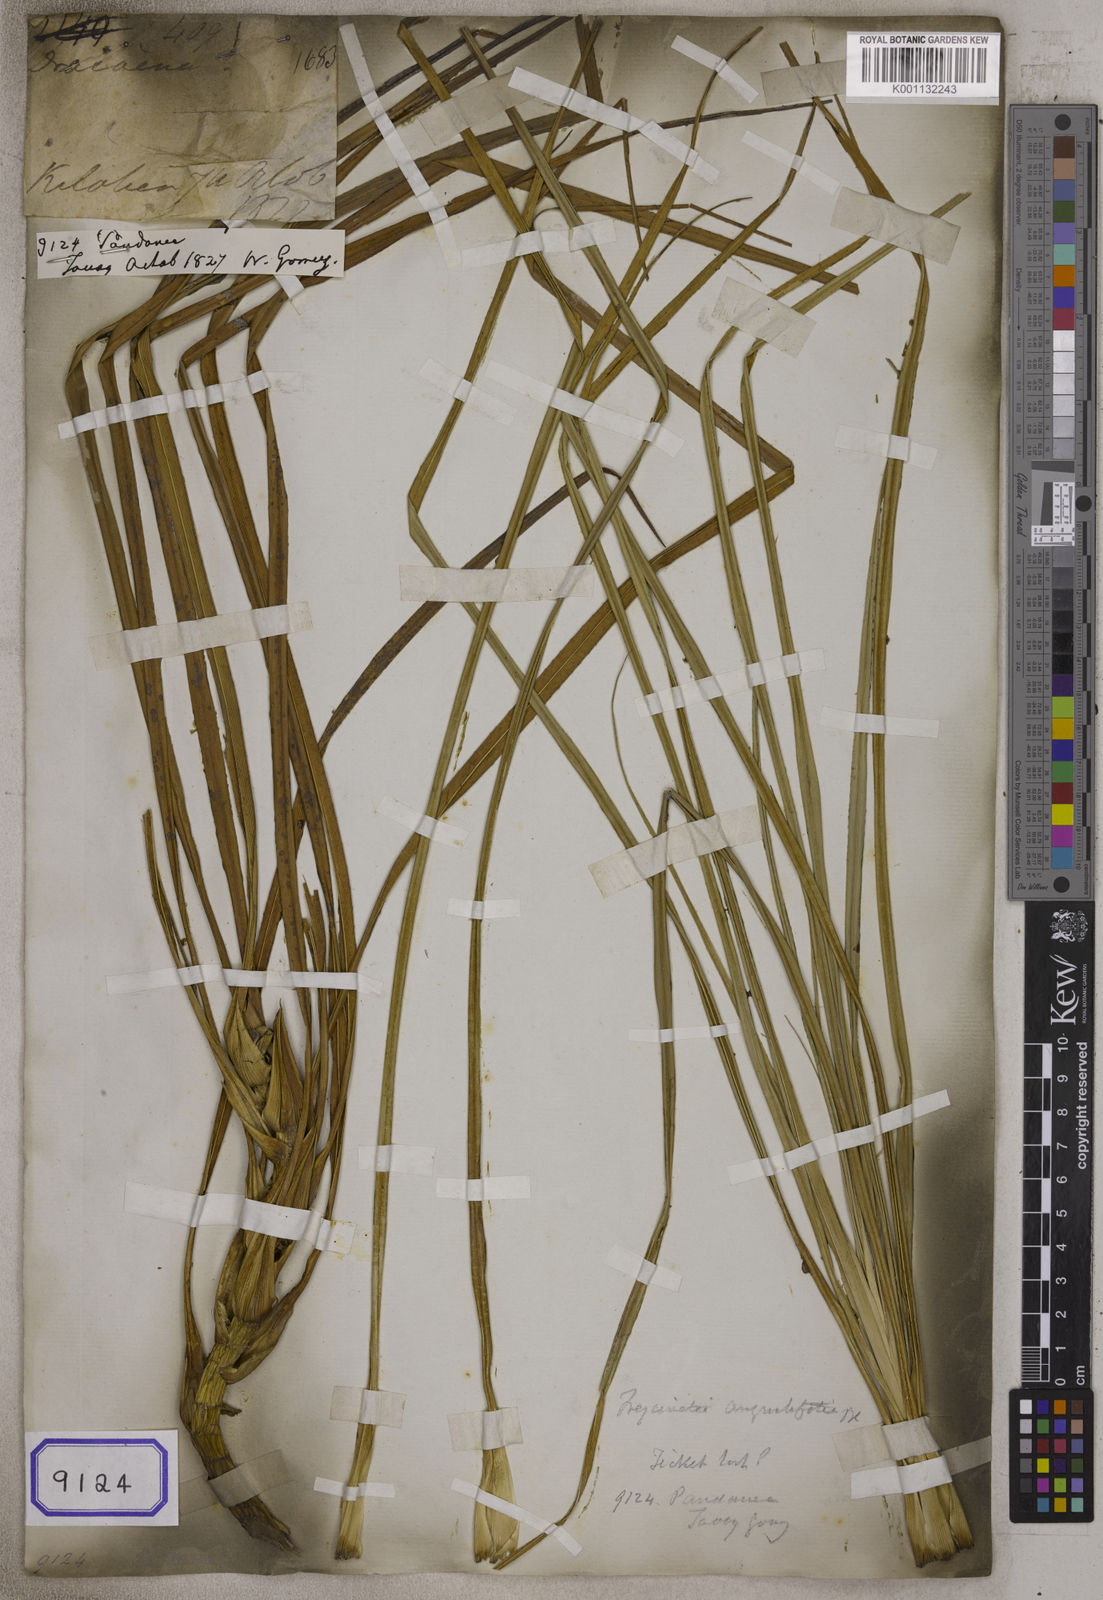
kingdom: Plantae
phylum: Tracheophyta
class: Liliopsida
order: Pandanales
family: Pandanaceae
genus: Pandanus
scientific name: Pandanus
